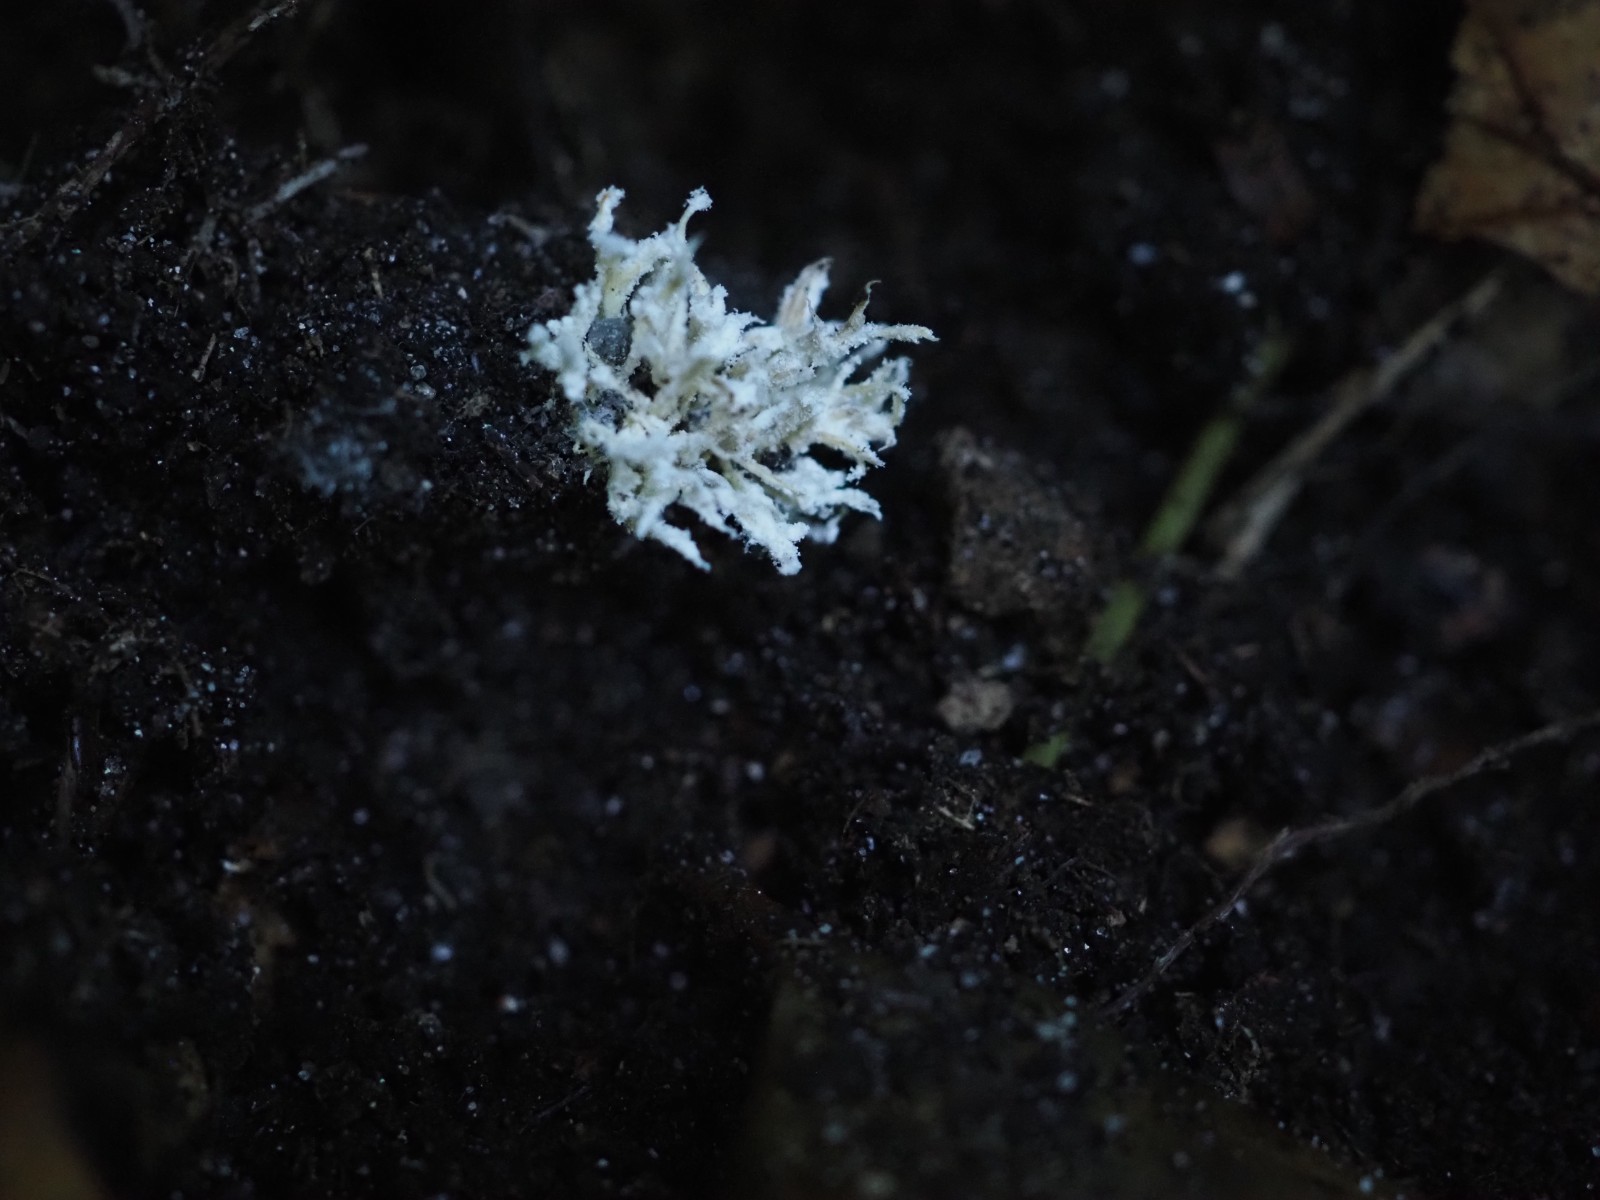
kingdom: Fungi
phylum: Ascomycota
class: Sordariomycetes
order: Hypocreales
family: Cordycipitaceae
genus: Cordyceps
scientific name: Cordyceps farinosa
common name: melet snyltekølle
